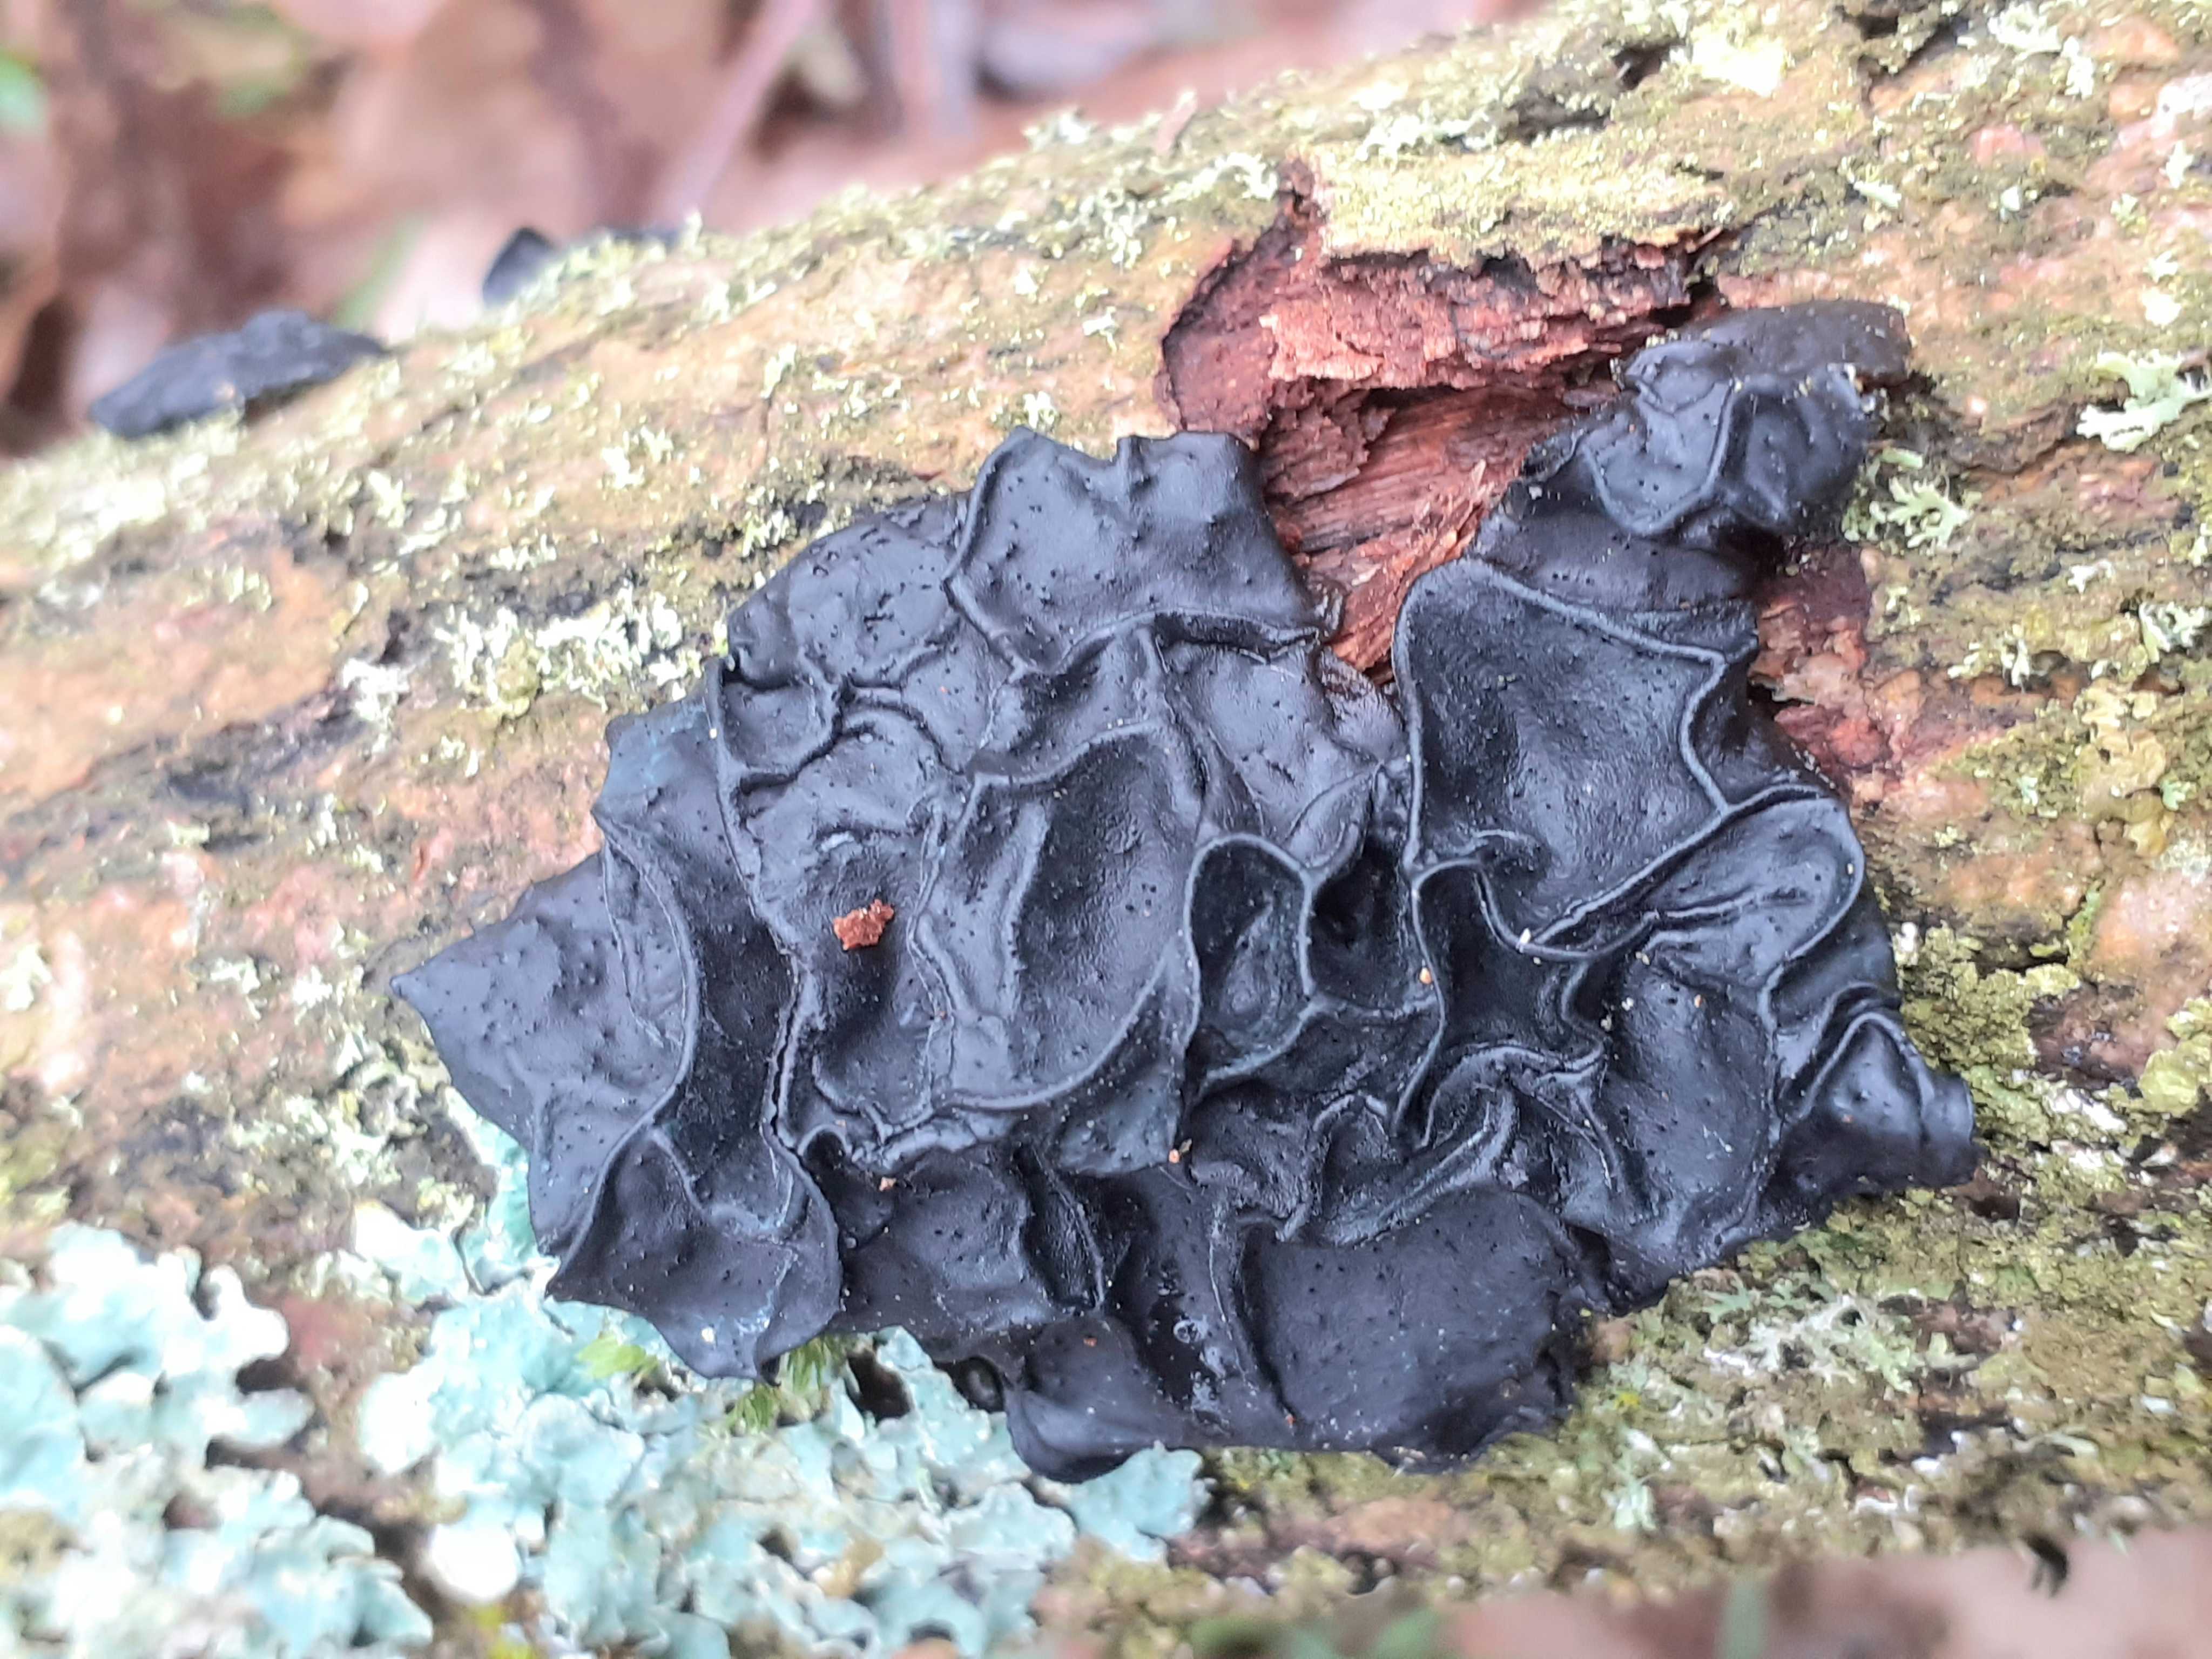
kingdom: Fungi
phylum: Basidiomycota
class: Agaricomycetes
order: Auriculariales
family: Auriculariaceae
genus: Exidia
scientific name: Exidia glandulosa
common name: ege-bævretop
